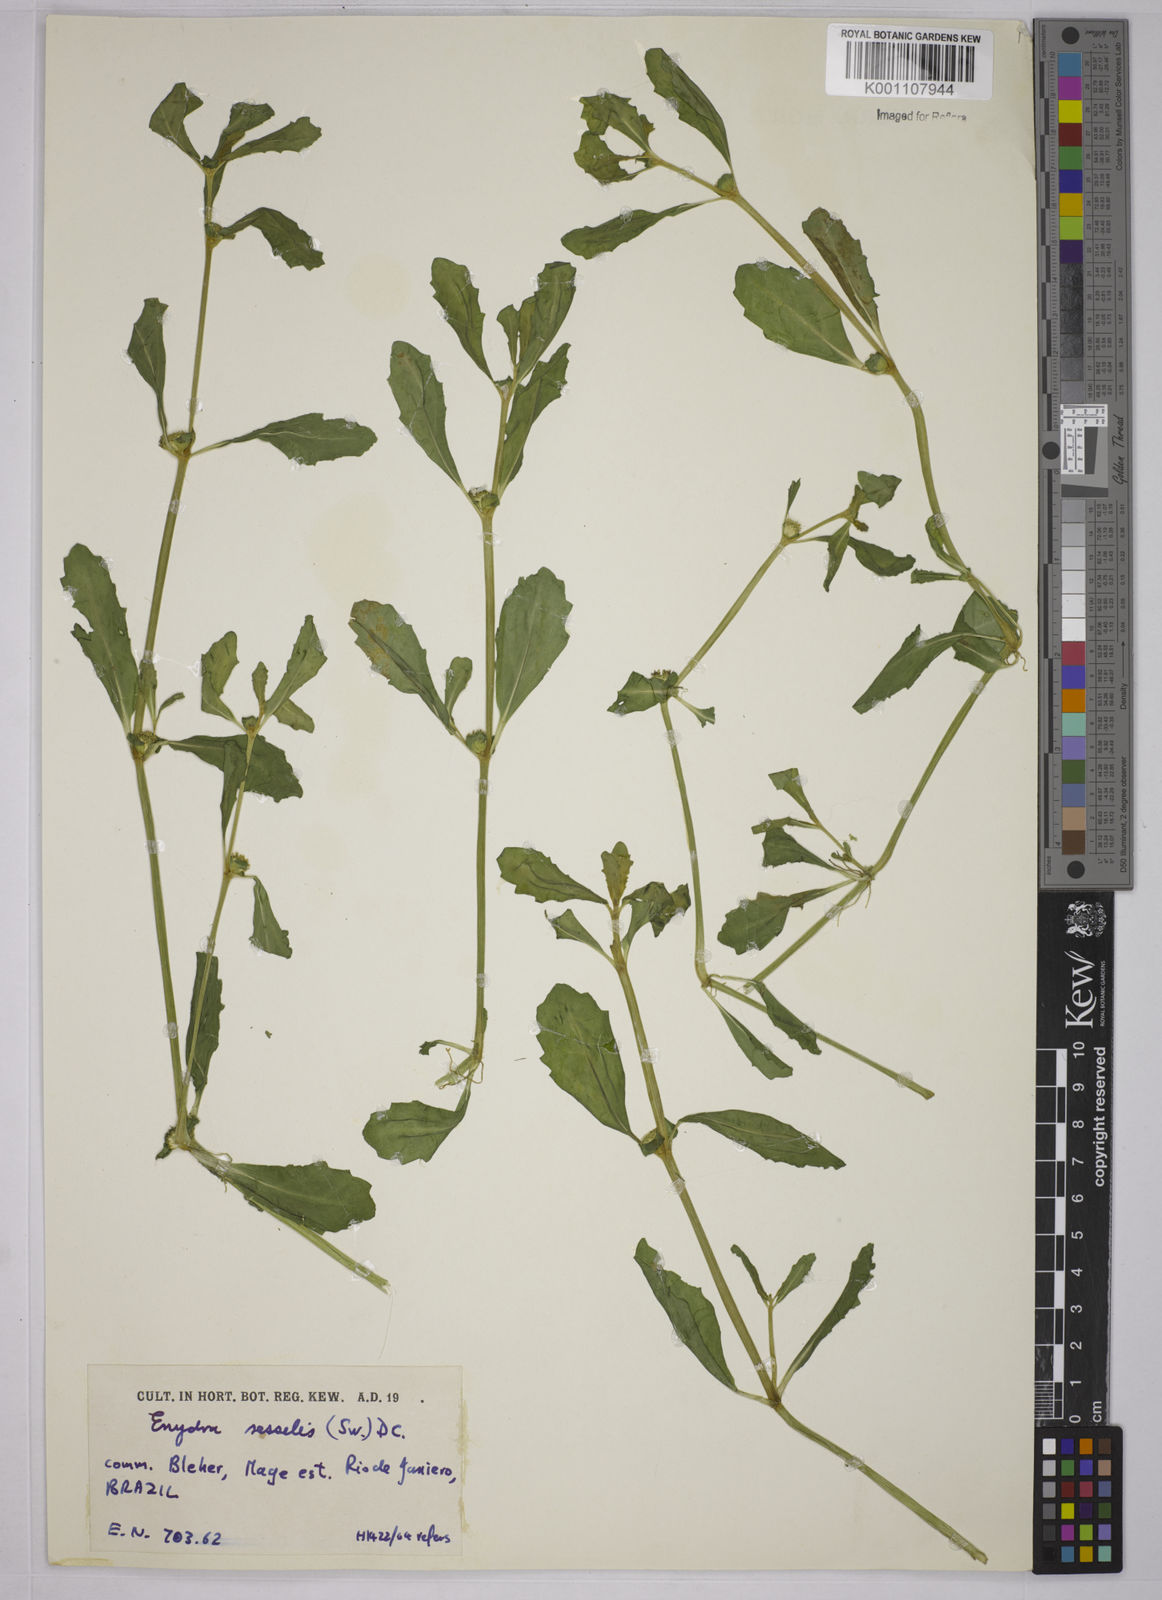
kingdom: Plantae
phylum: Tracheophyta
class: Magnoliopsida
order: Asterales
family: Asteraceae
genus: Enydra
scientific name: Enydra sessilis
